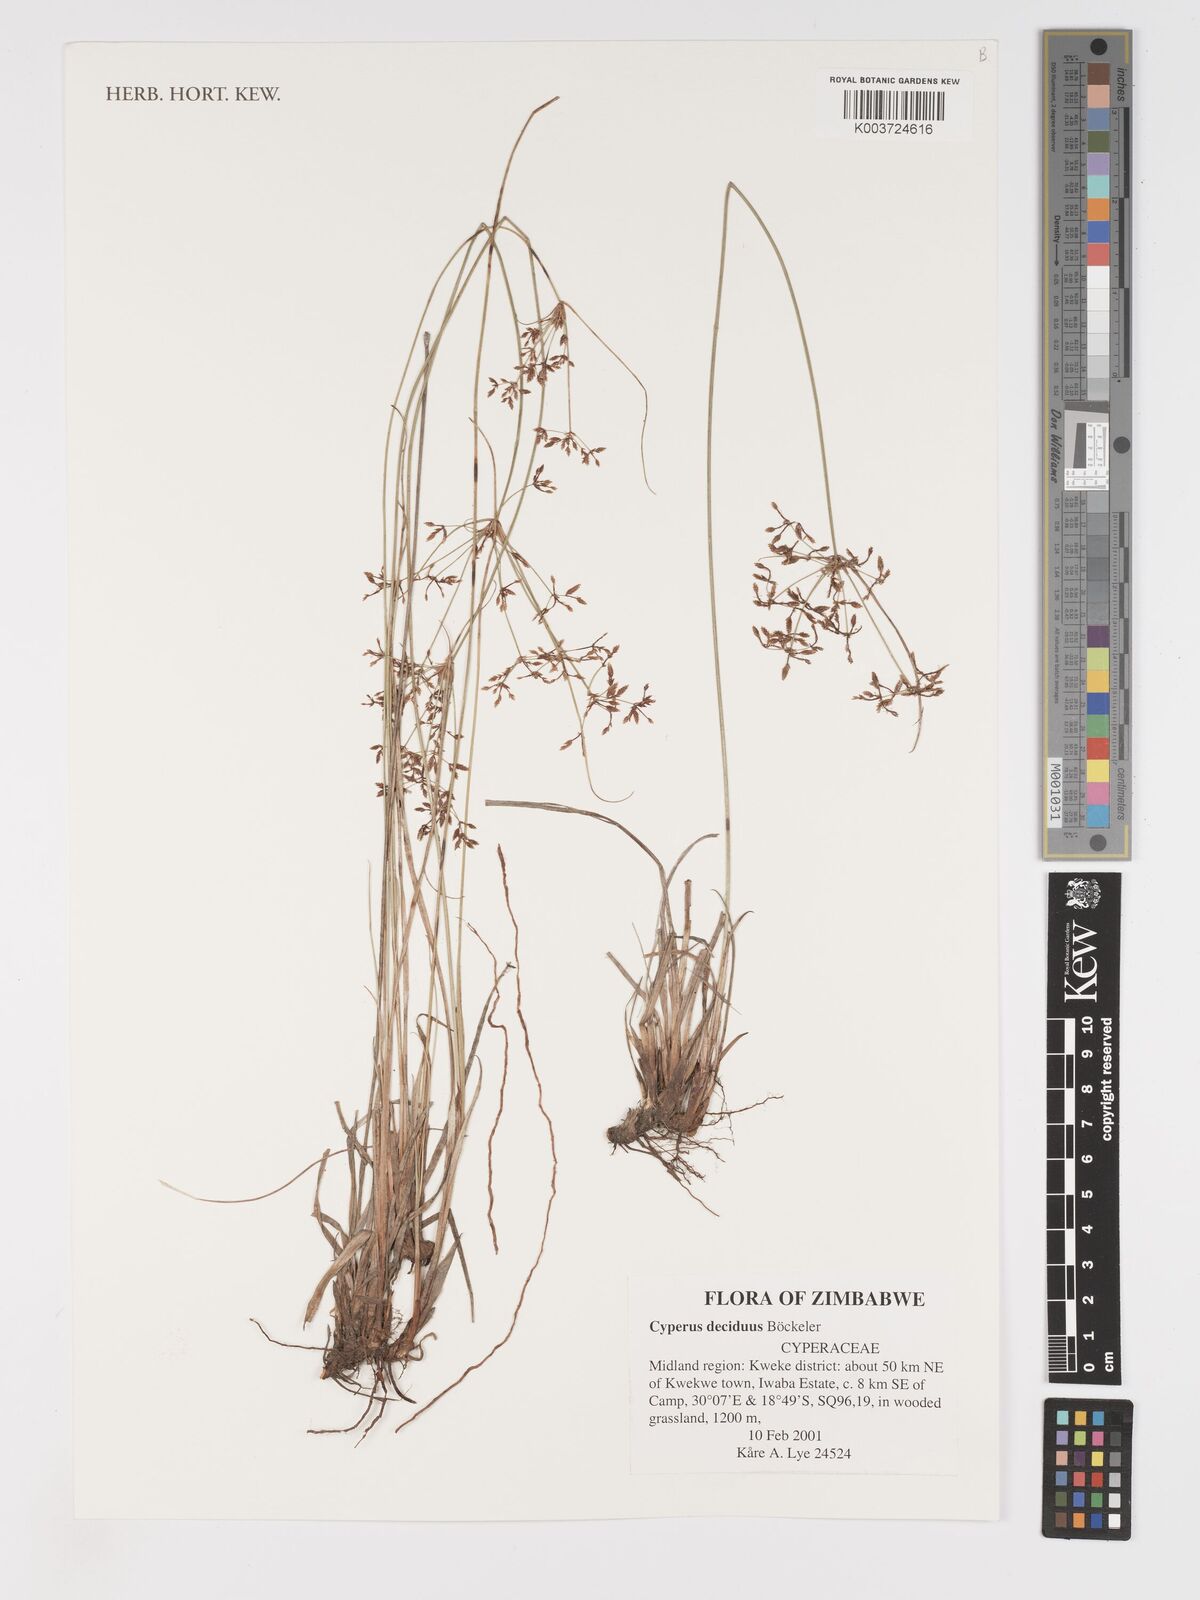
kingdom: Plantae
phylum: Tracheophyta
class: Liliopsida
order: Poales
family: Cyperaceae
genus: Cyperus
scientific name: Cyperus deciduus
